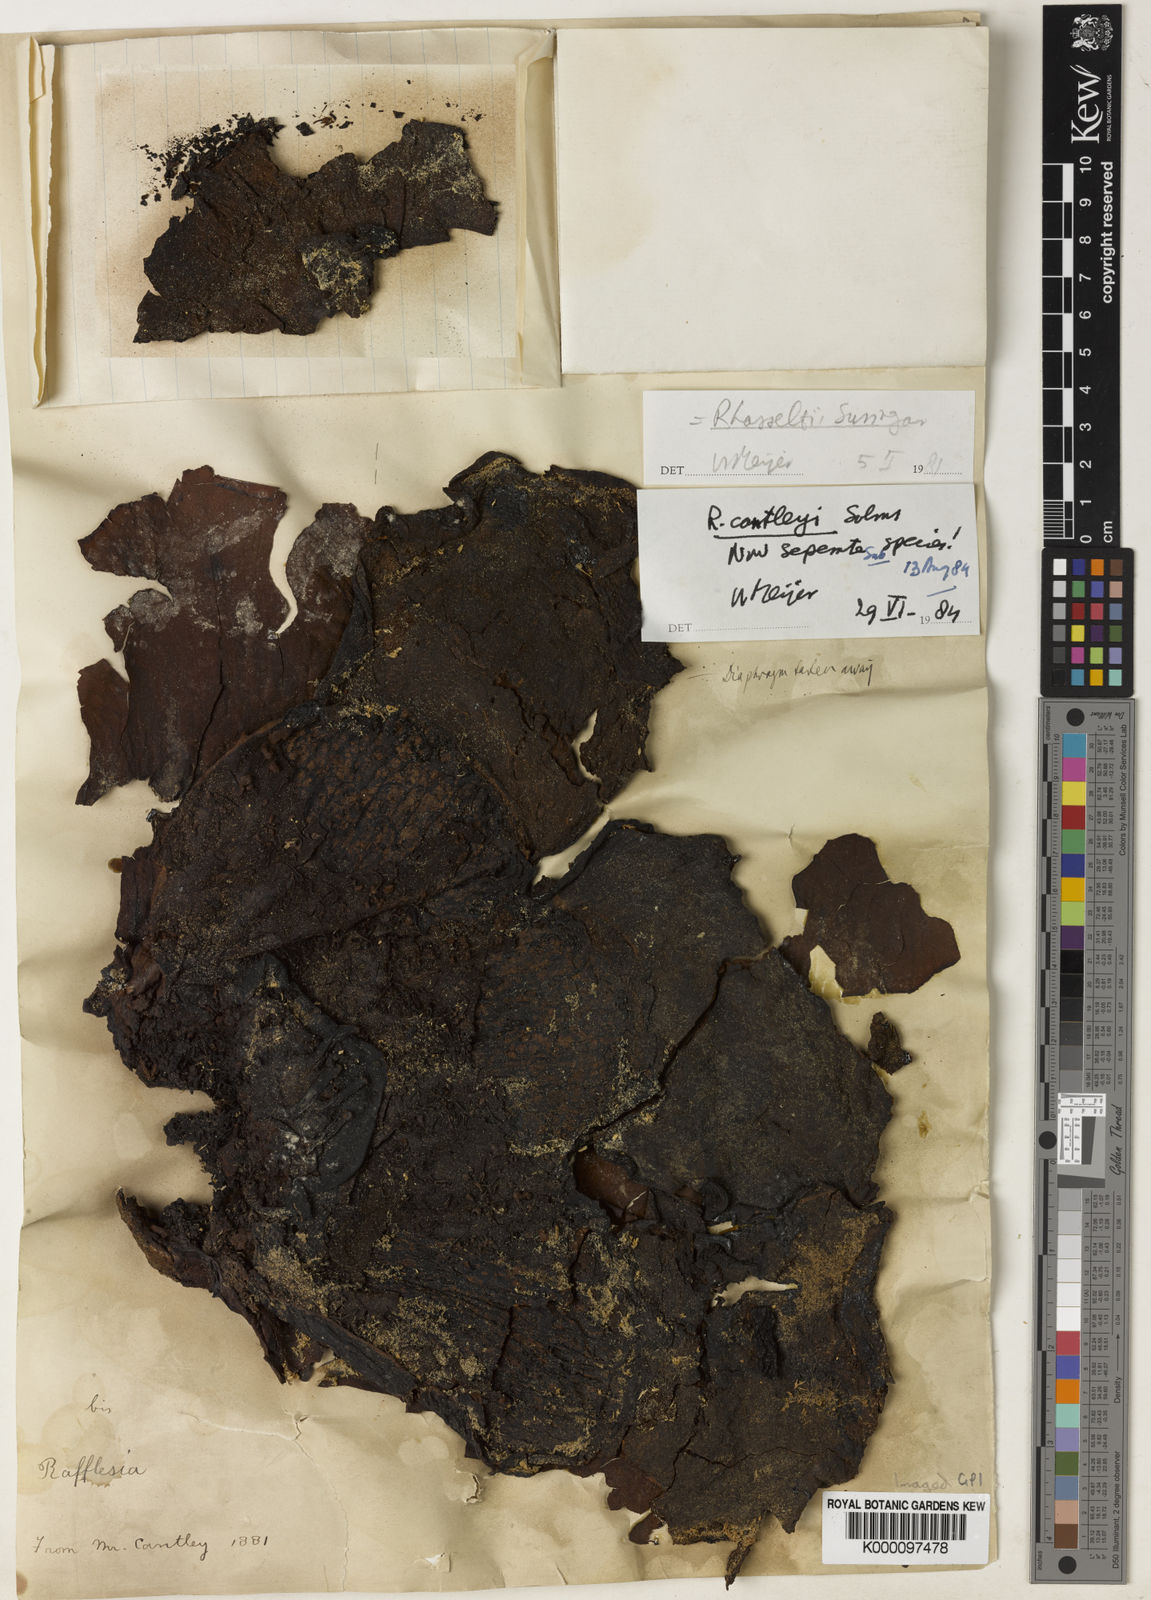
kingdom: Plantae
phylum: Tracheophyta
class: Magnoliopsida
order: Malpighiales
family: Rafflesiaceae
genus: Rafflesia
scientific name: Rafflesia cantleyi
